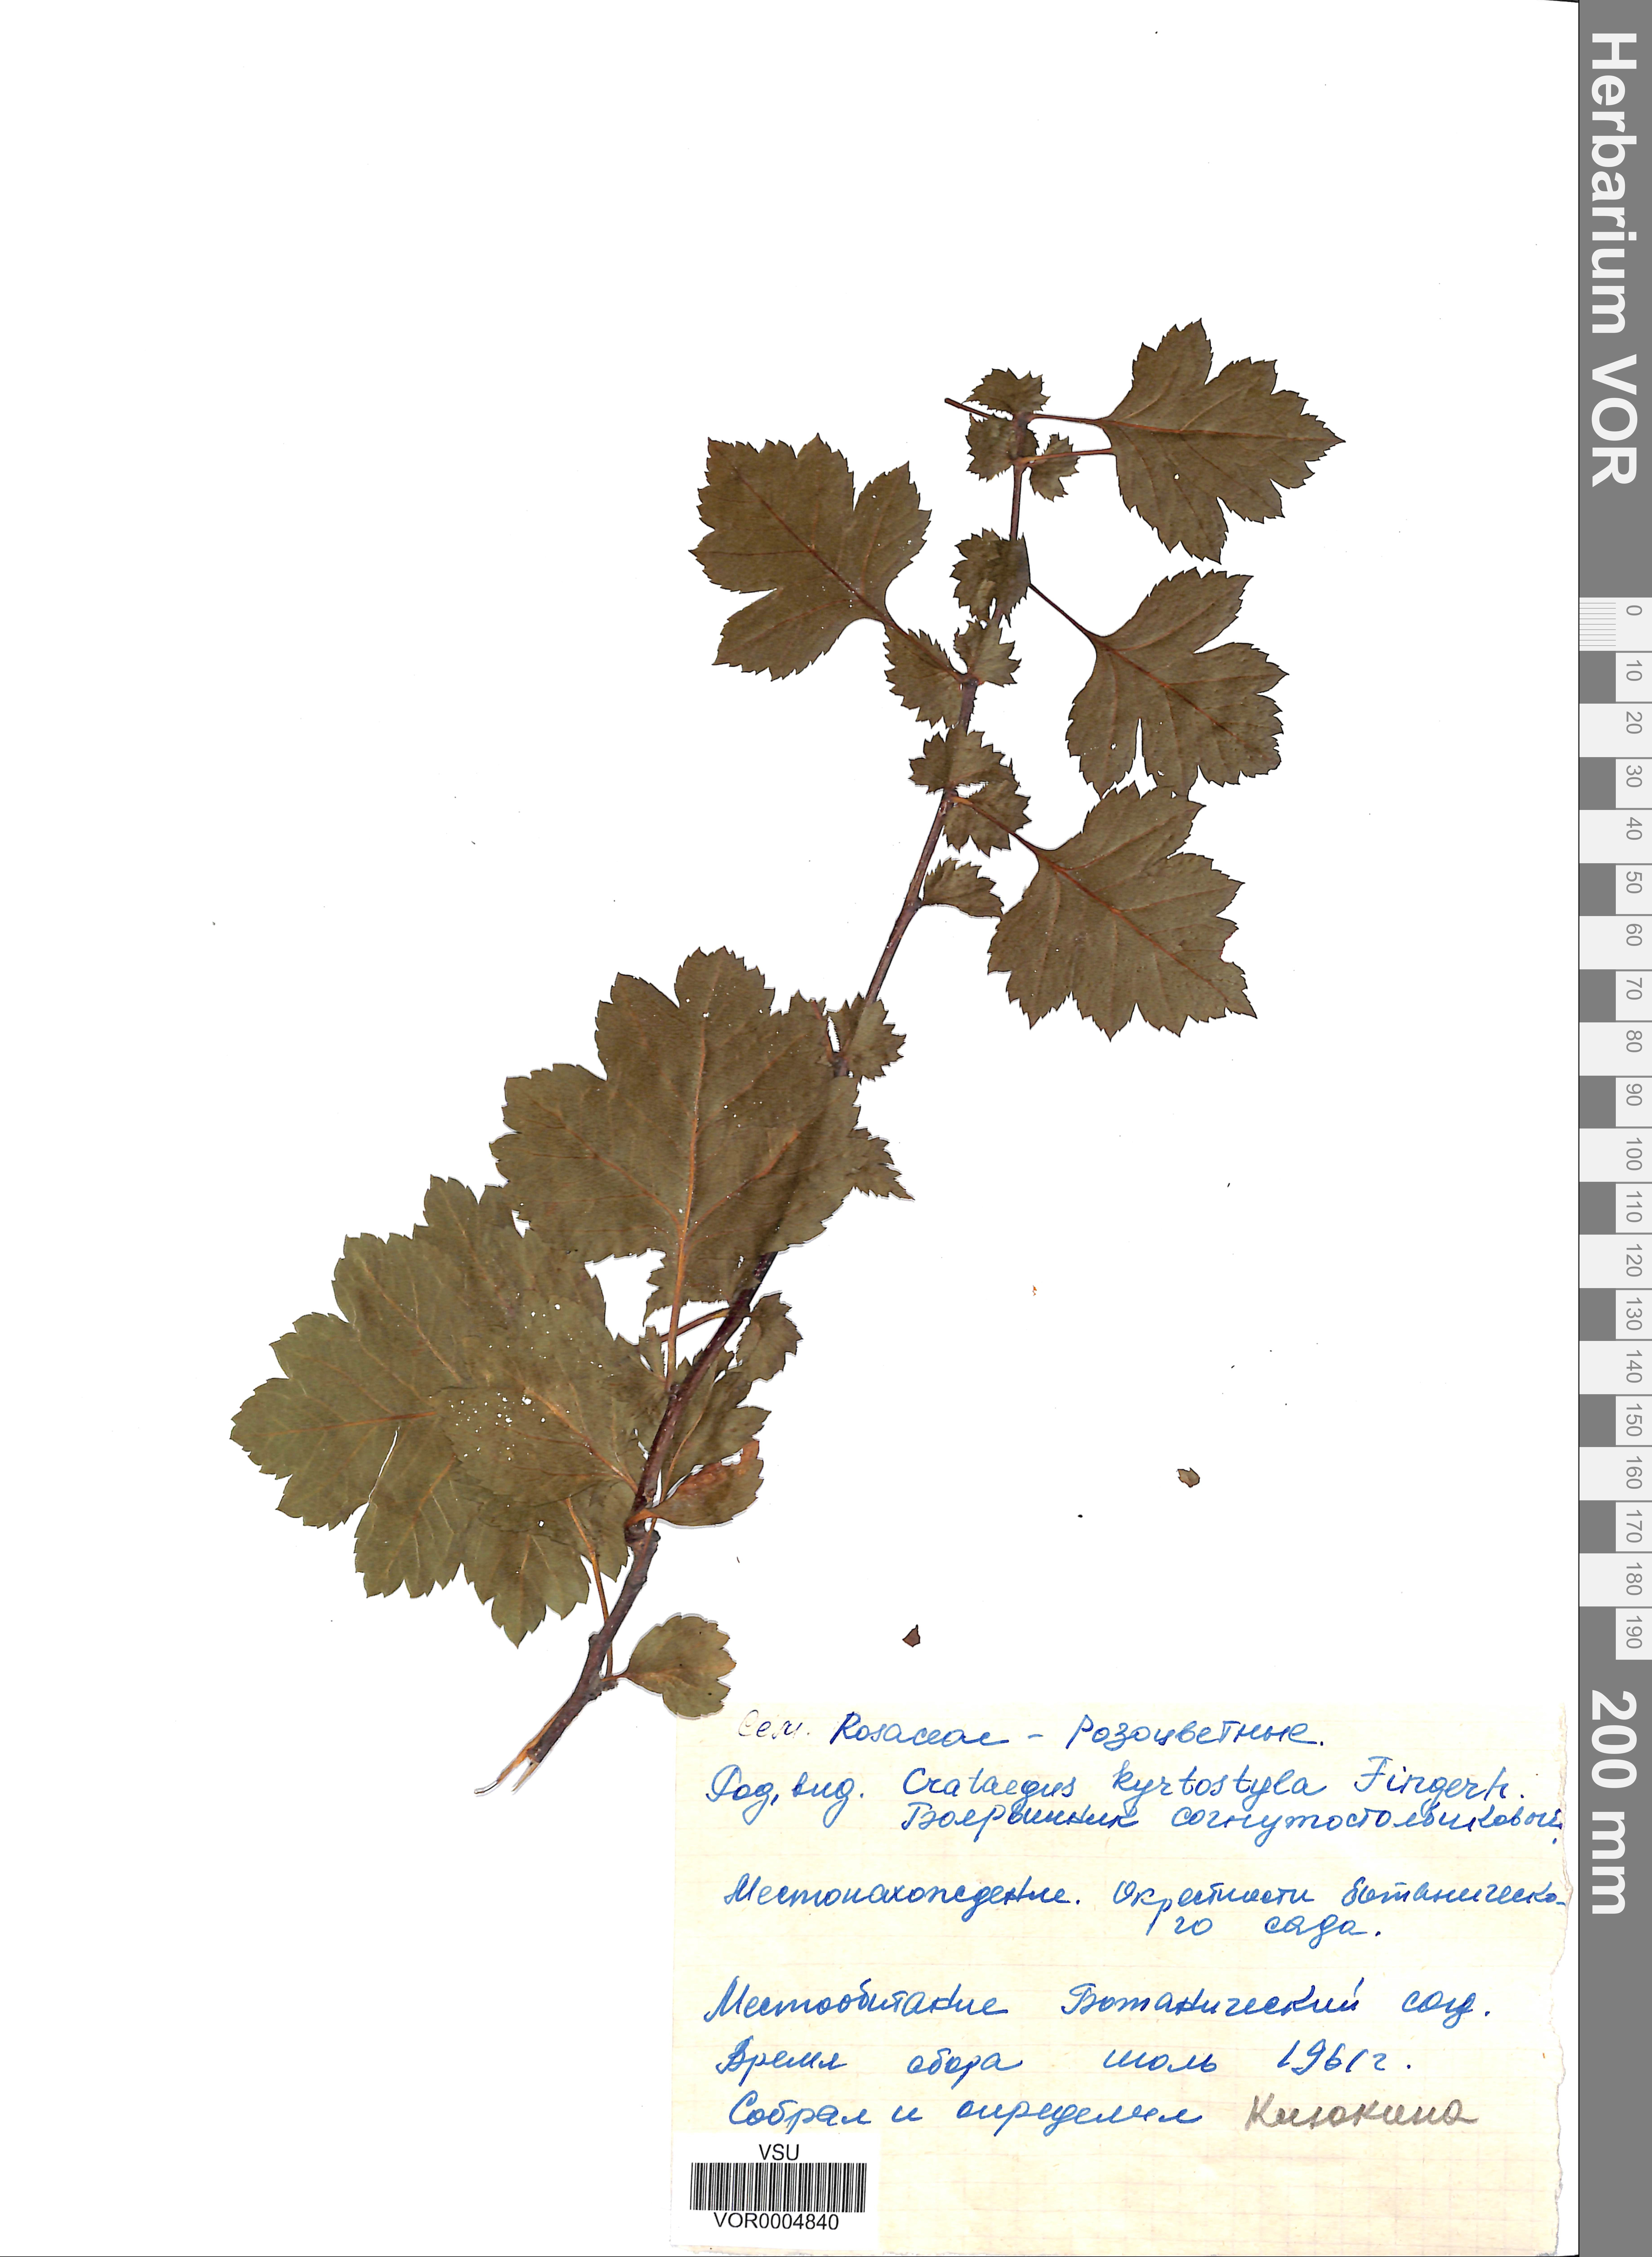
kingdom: Plantae
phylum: Tracheophyta
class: Magnoliopsida
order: Rosales
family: Rosaceae
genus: Crataegus
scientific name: Crataegus praemonticola
